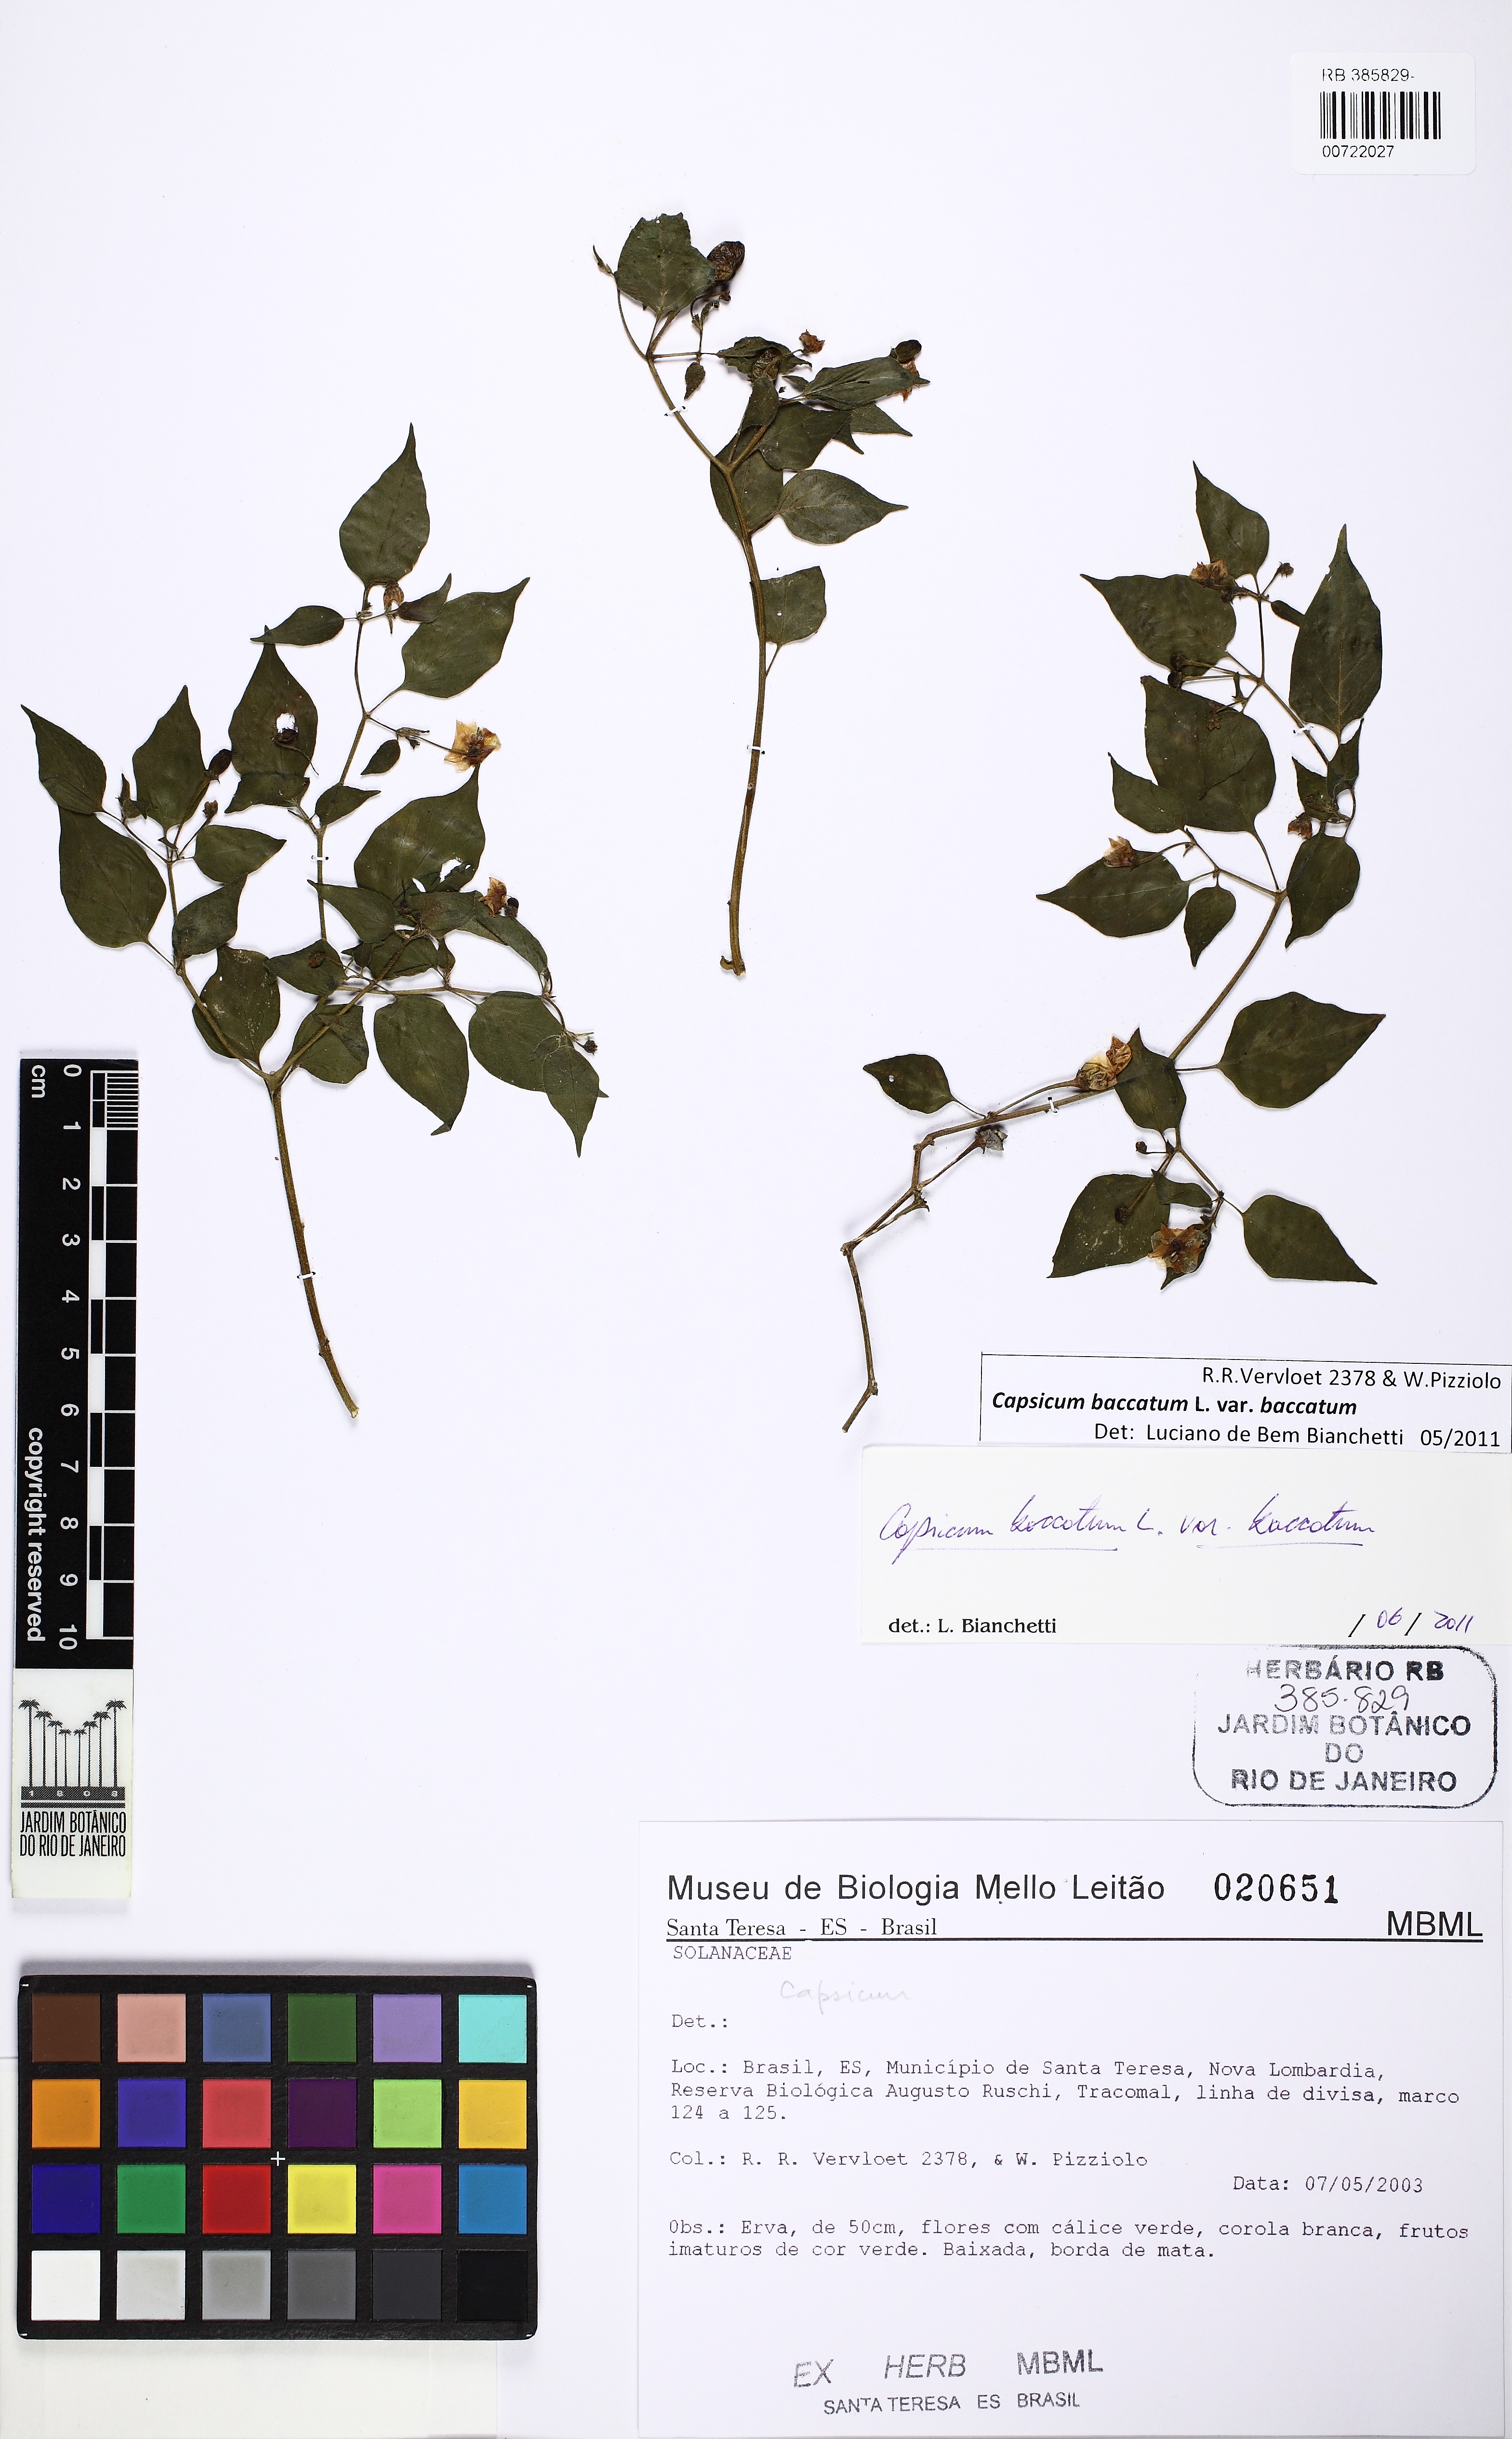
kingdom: Plantae
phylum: Tracheophyta
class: Magnoliopsida
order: Solanales
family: Solanaceae
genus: Capsicum
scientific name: Capsicum baccatum
